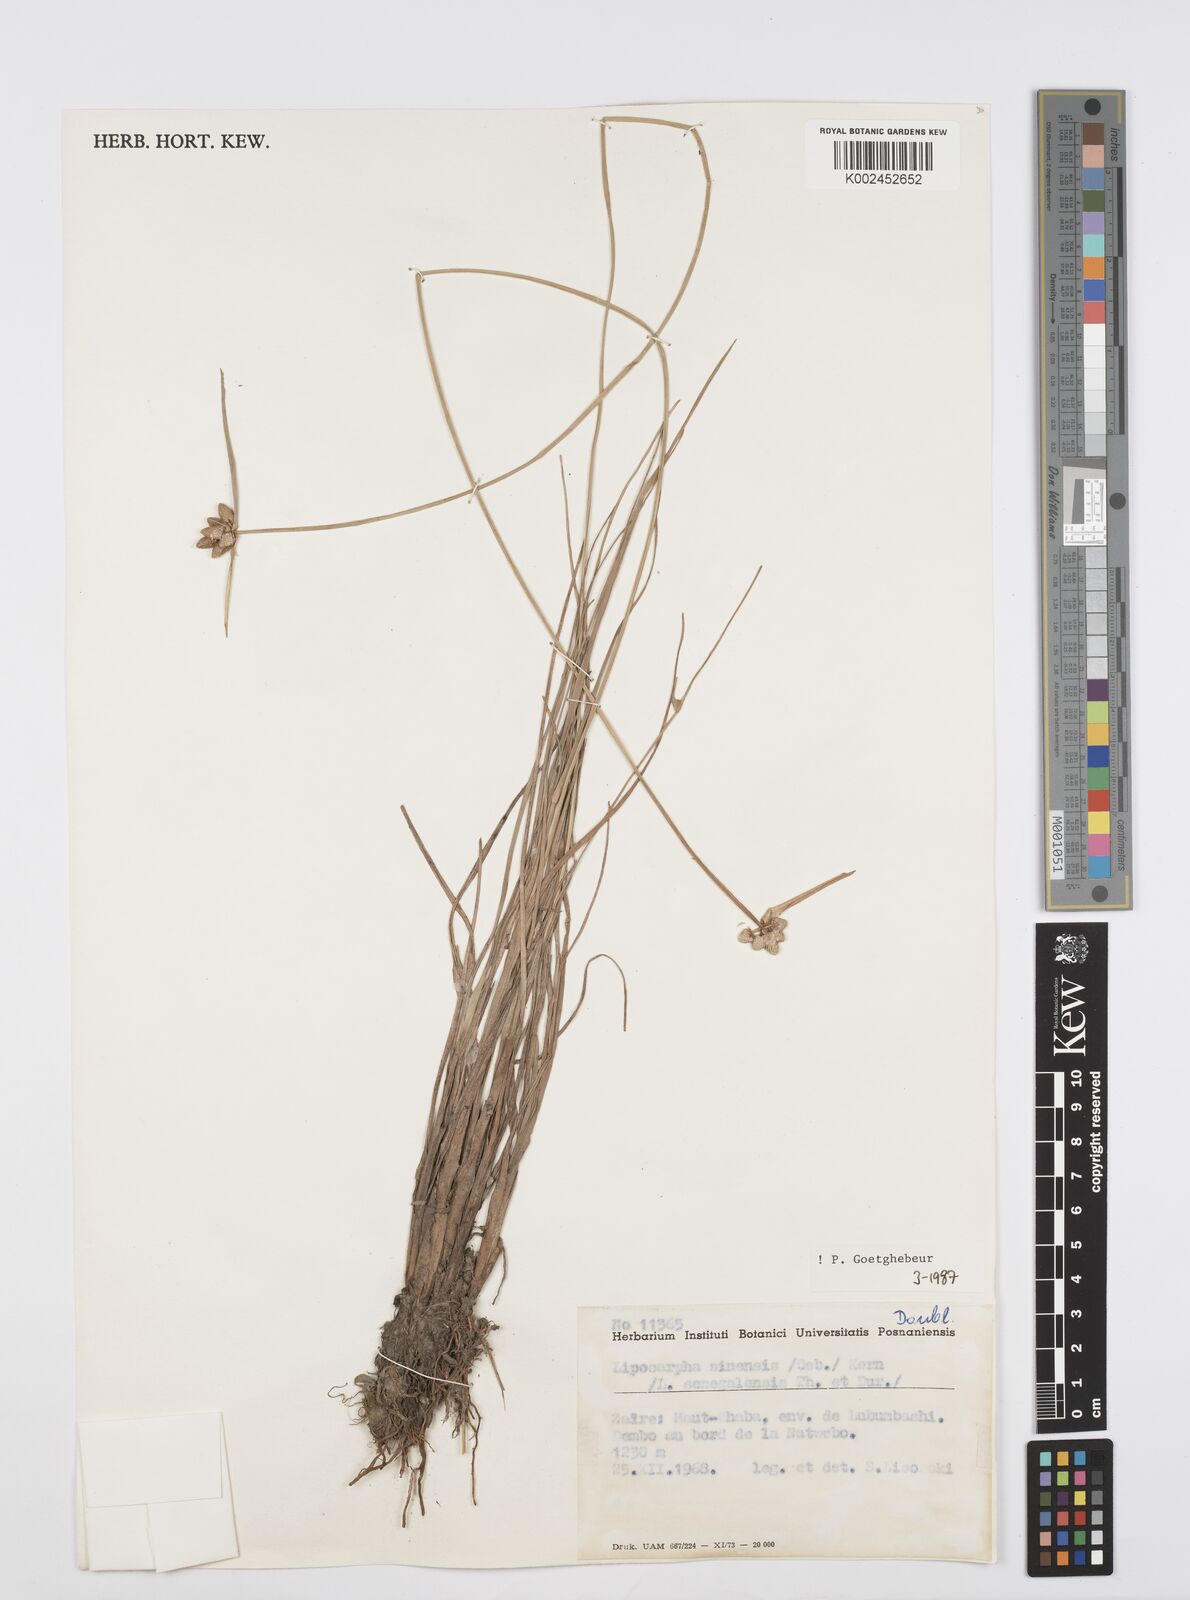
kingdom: Plantae
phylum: Tracheophyta
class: Liliopsida
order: Poales
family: Cyperaceae
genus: Cyperus
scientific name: Cyperus albescens
